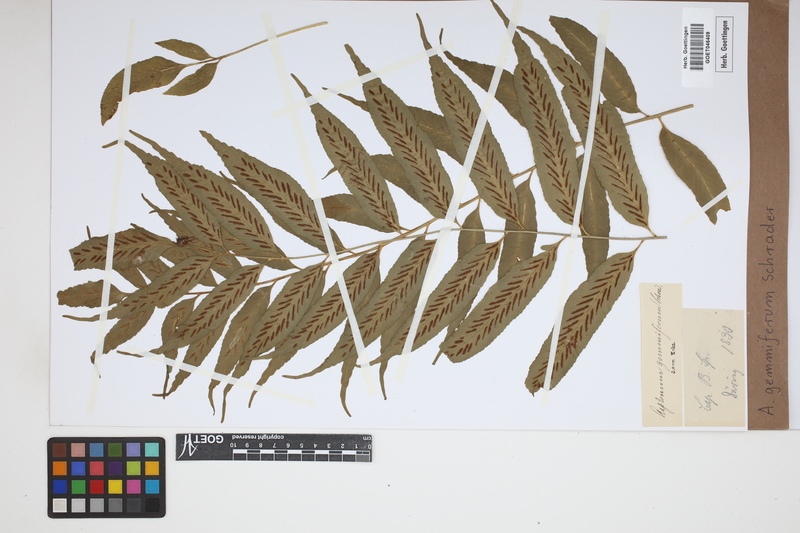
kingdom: Plantae
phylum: Tracheophyta
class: Polypodiopsida
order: Polypodiales
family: Aspleniaceae
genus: Asplenium
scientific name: Asplenium gemmiferum
